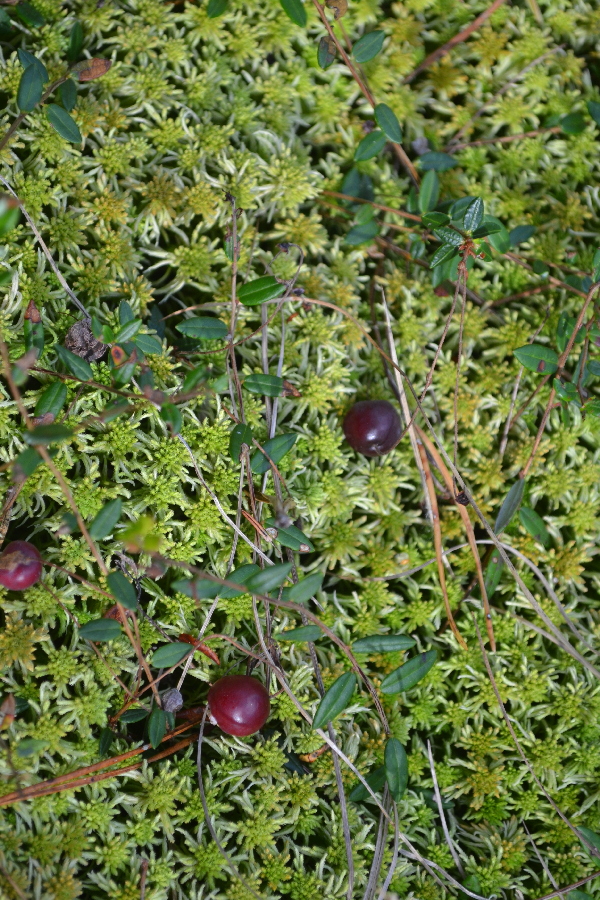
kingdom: Plantae
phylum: Tracheophyta
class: Magnoliopsida
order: Ericales
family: Ericaceae
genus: Vaccinium
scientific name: Vaccinium oxycoccos
